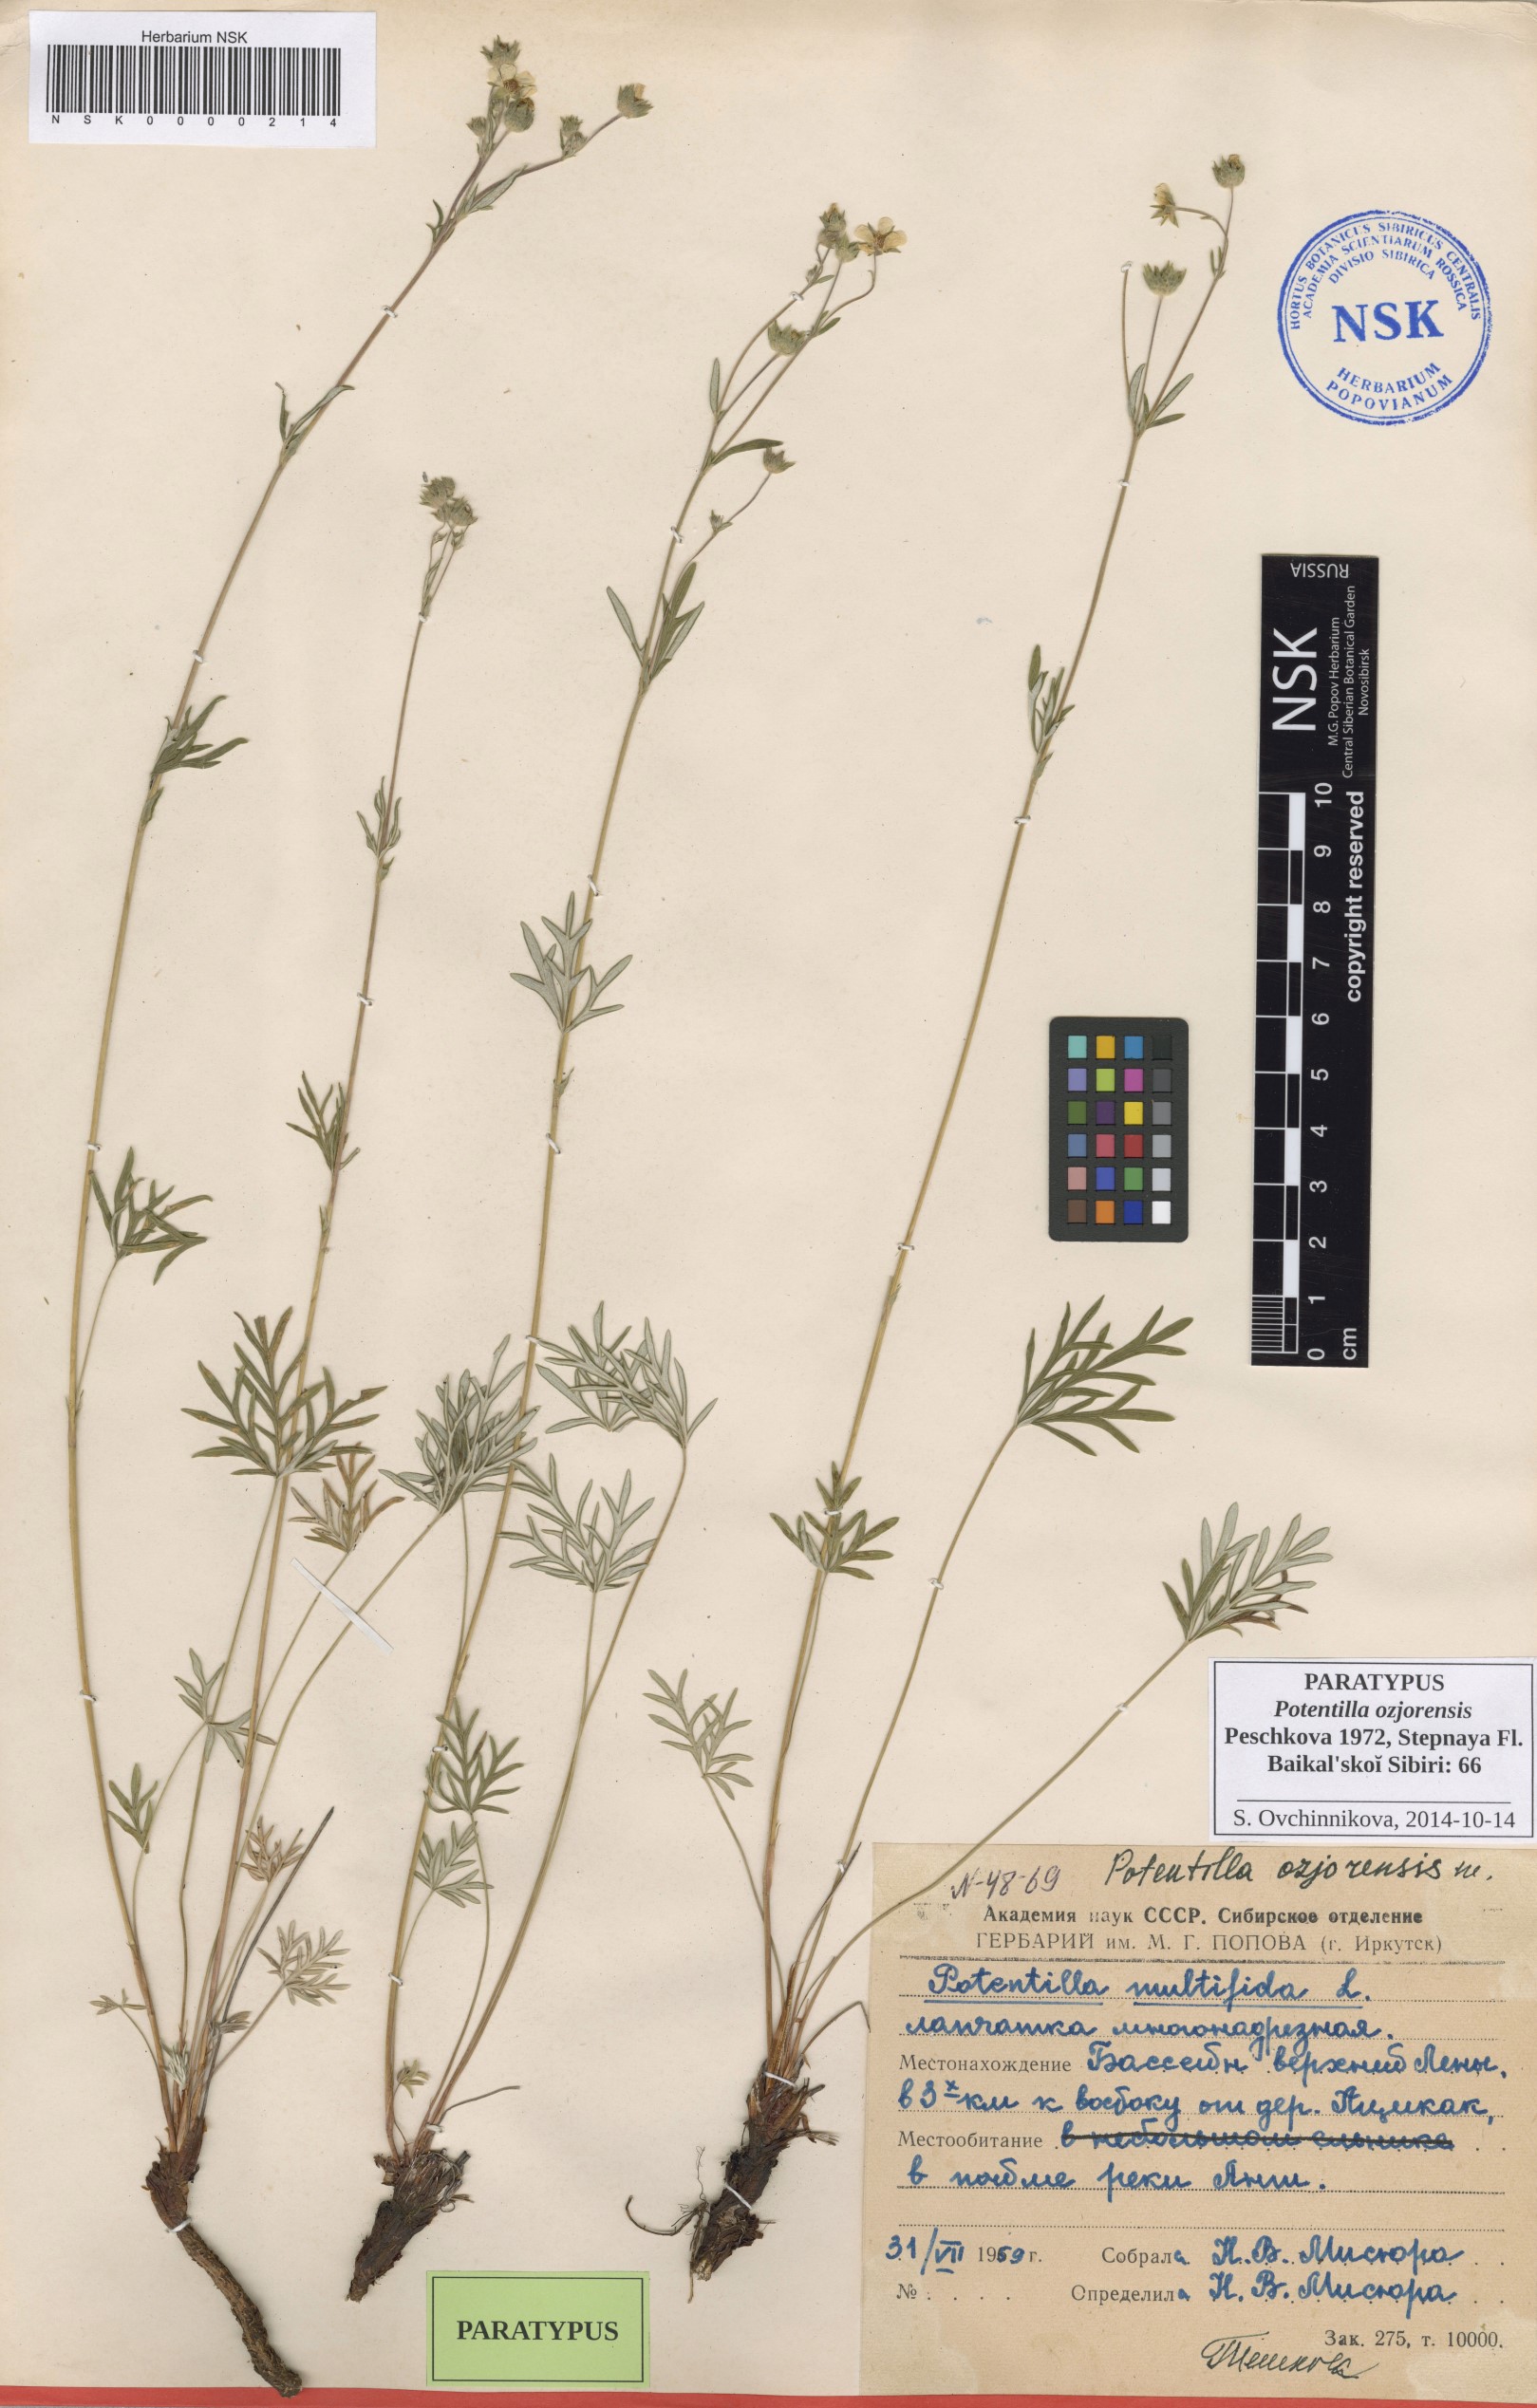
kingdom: Plantae
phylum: Tracheophyta
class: Magnoliopsida
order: Rosales
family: Rosaceae
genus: Potentilla
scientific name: Potentilla ozjorensis
